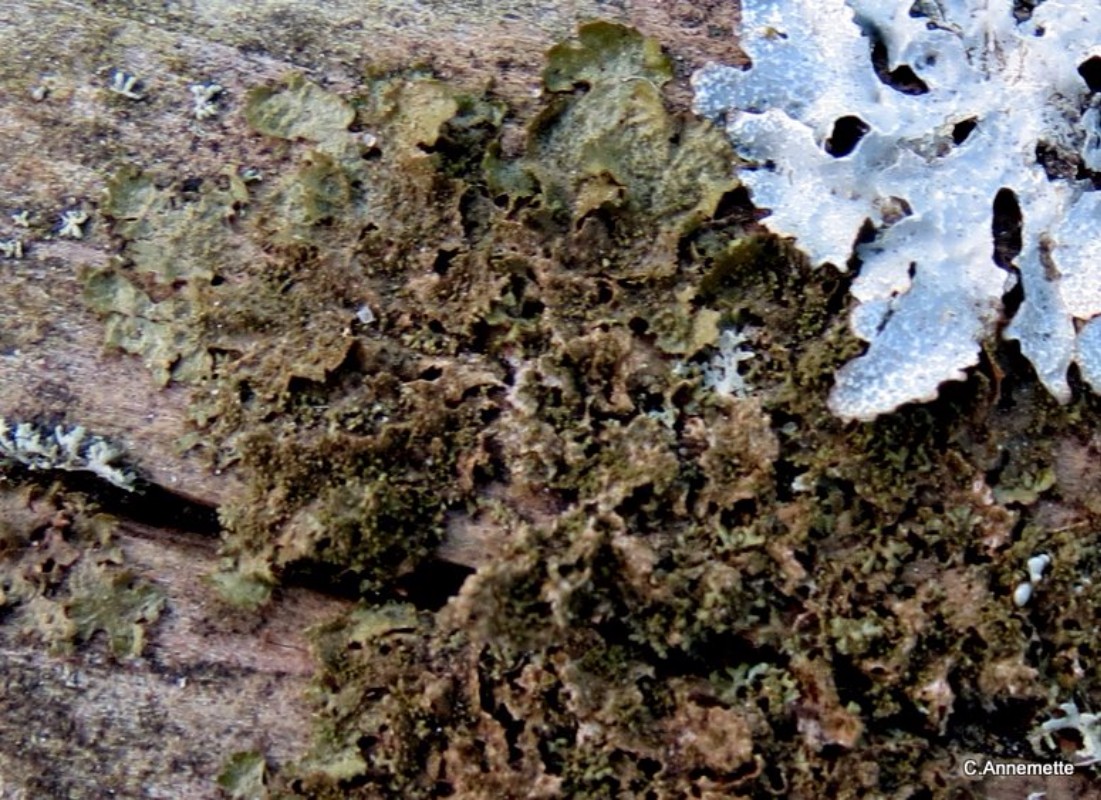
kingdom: Fungi
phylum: Ascomycota
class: Lecanoromycetes
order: Lecanorales
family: Parmeliaceae
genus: Melanohalea
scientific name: Melanohalea exasperatula
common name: kølle-skållav
